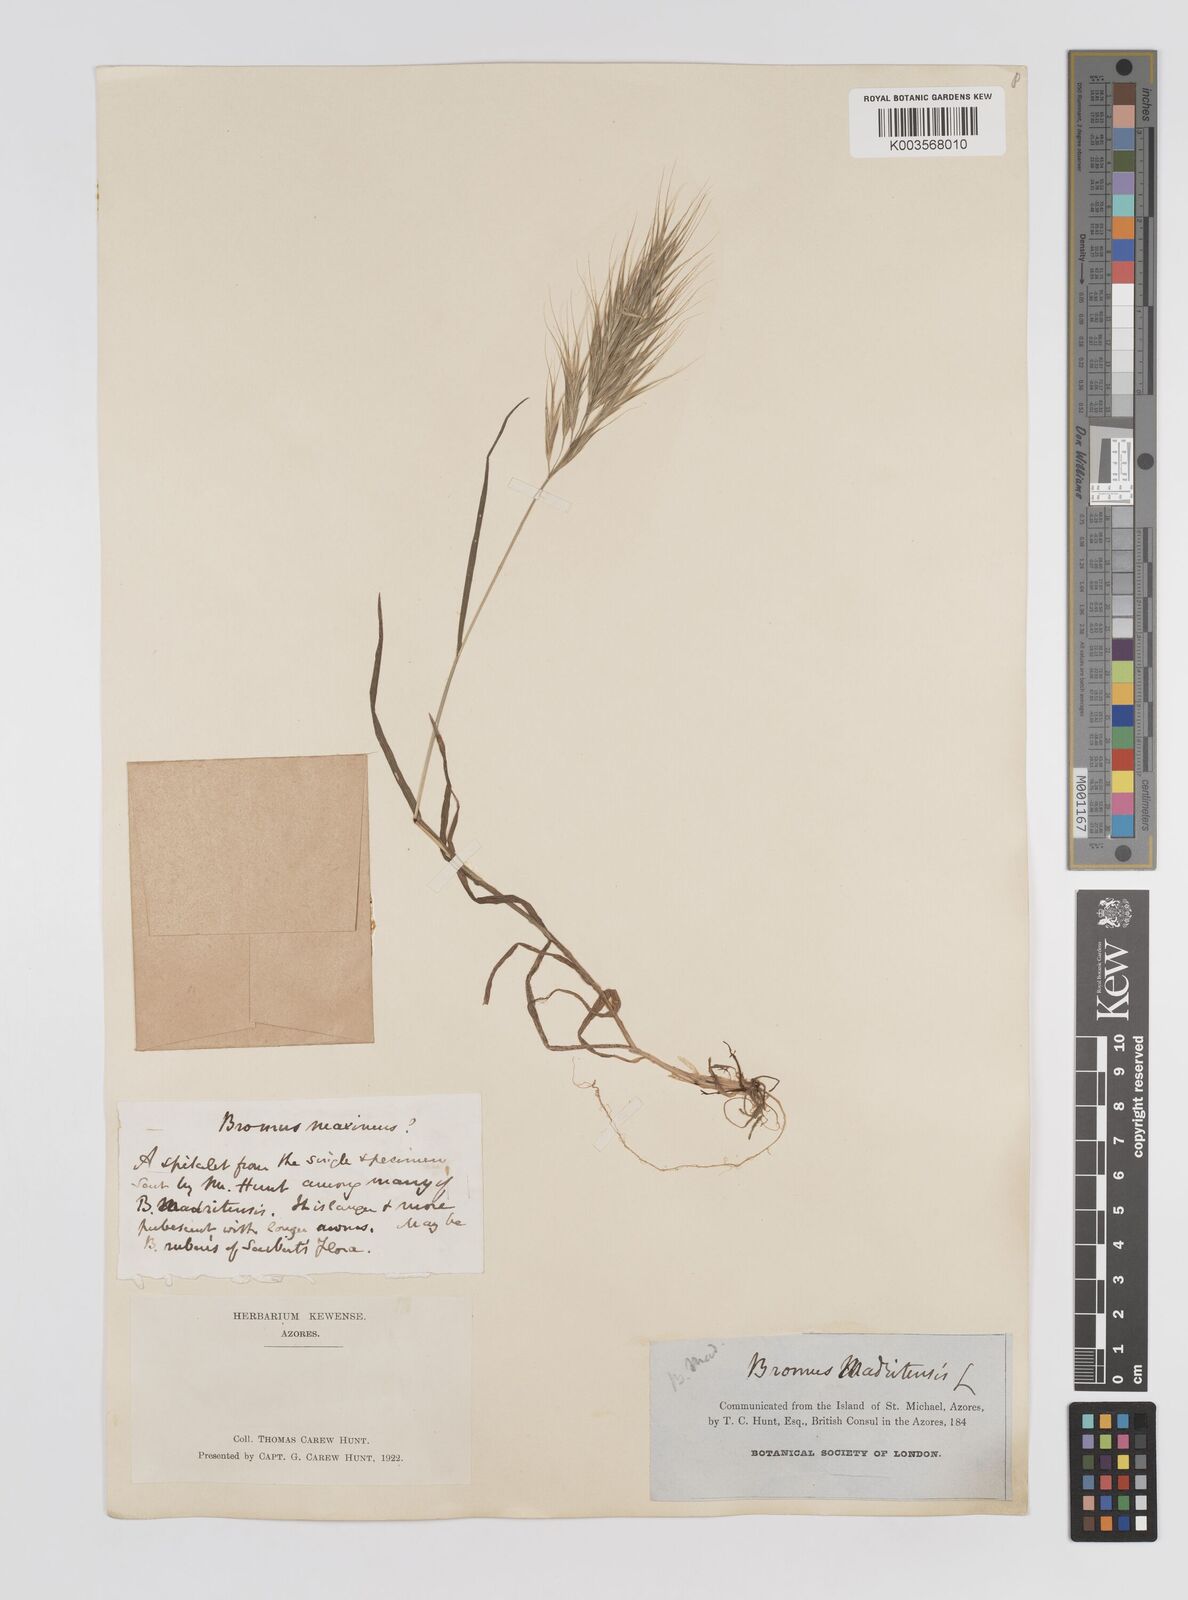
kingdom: Plantae
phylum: Tracheophyta
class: Liliopsida
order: Poales
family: Poaceae
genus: Bromus
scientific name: Bromus
